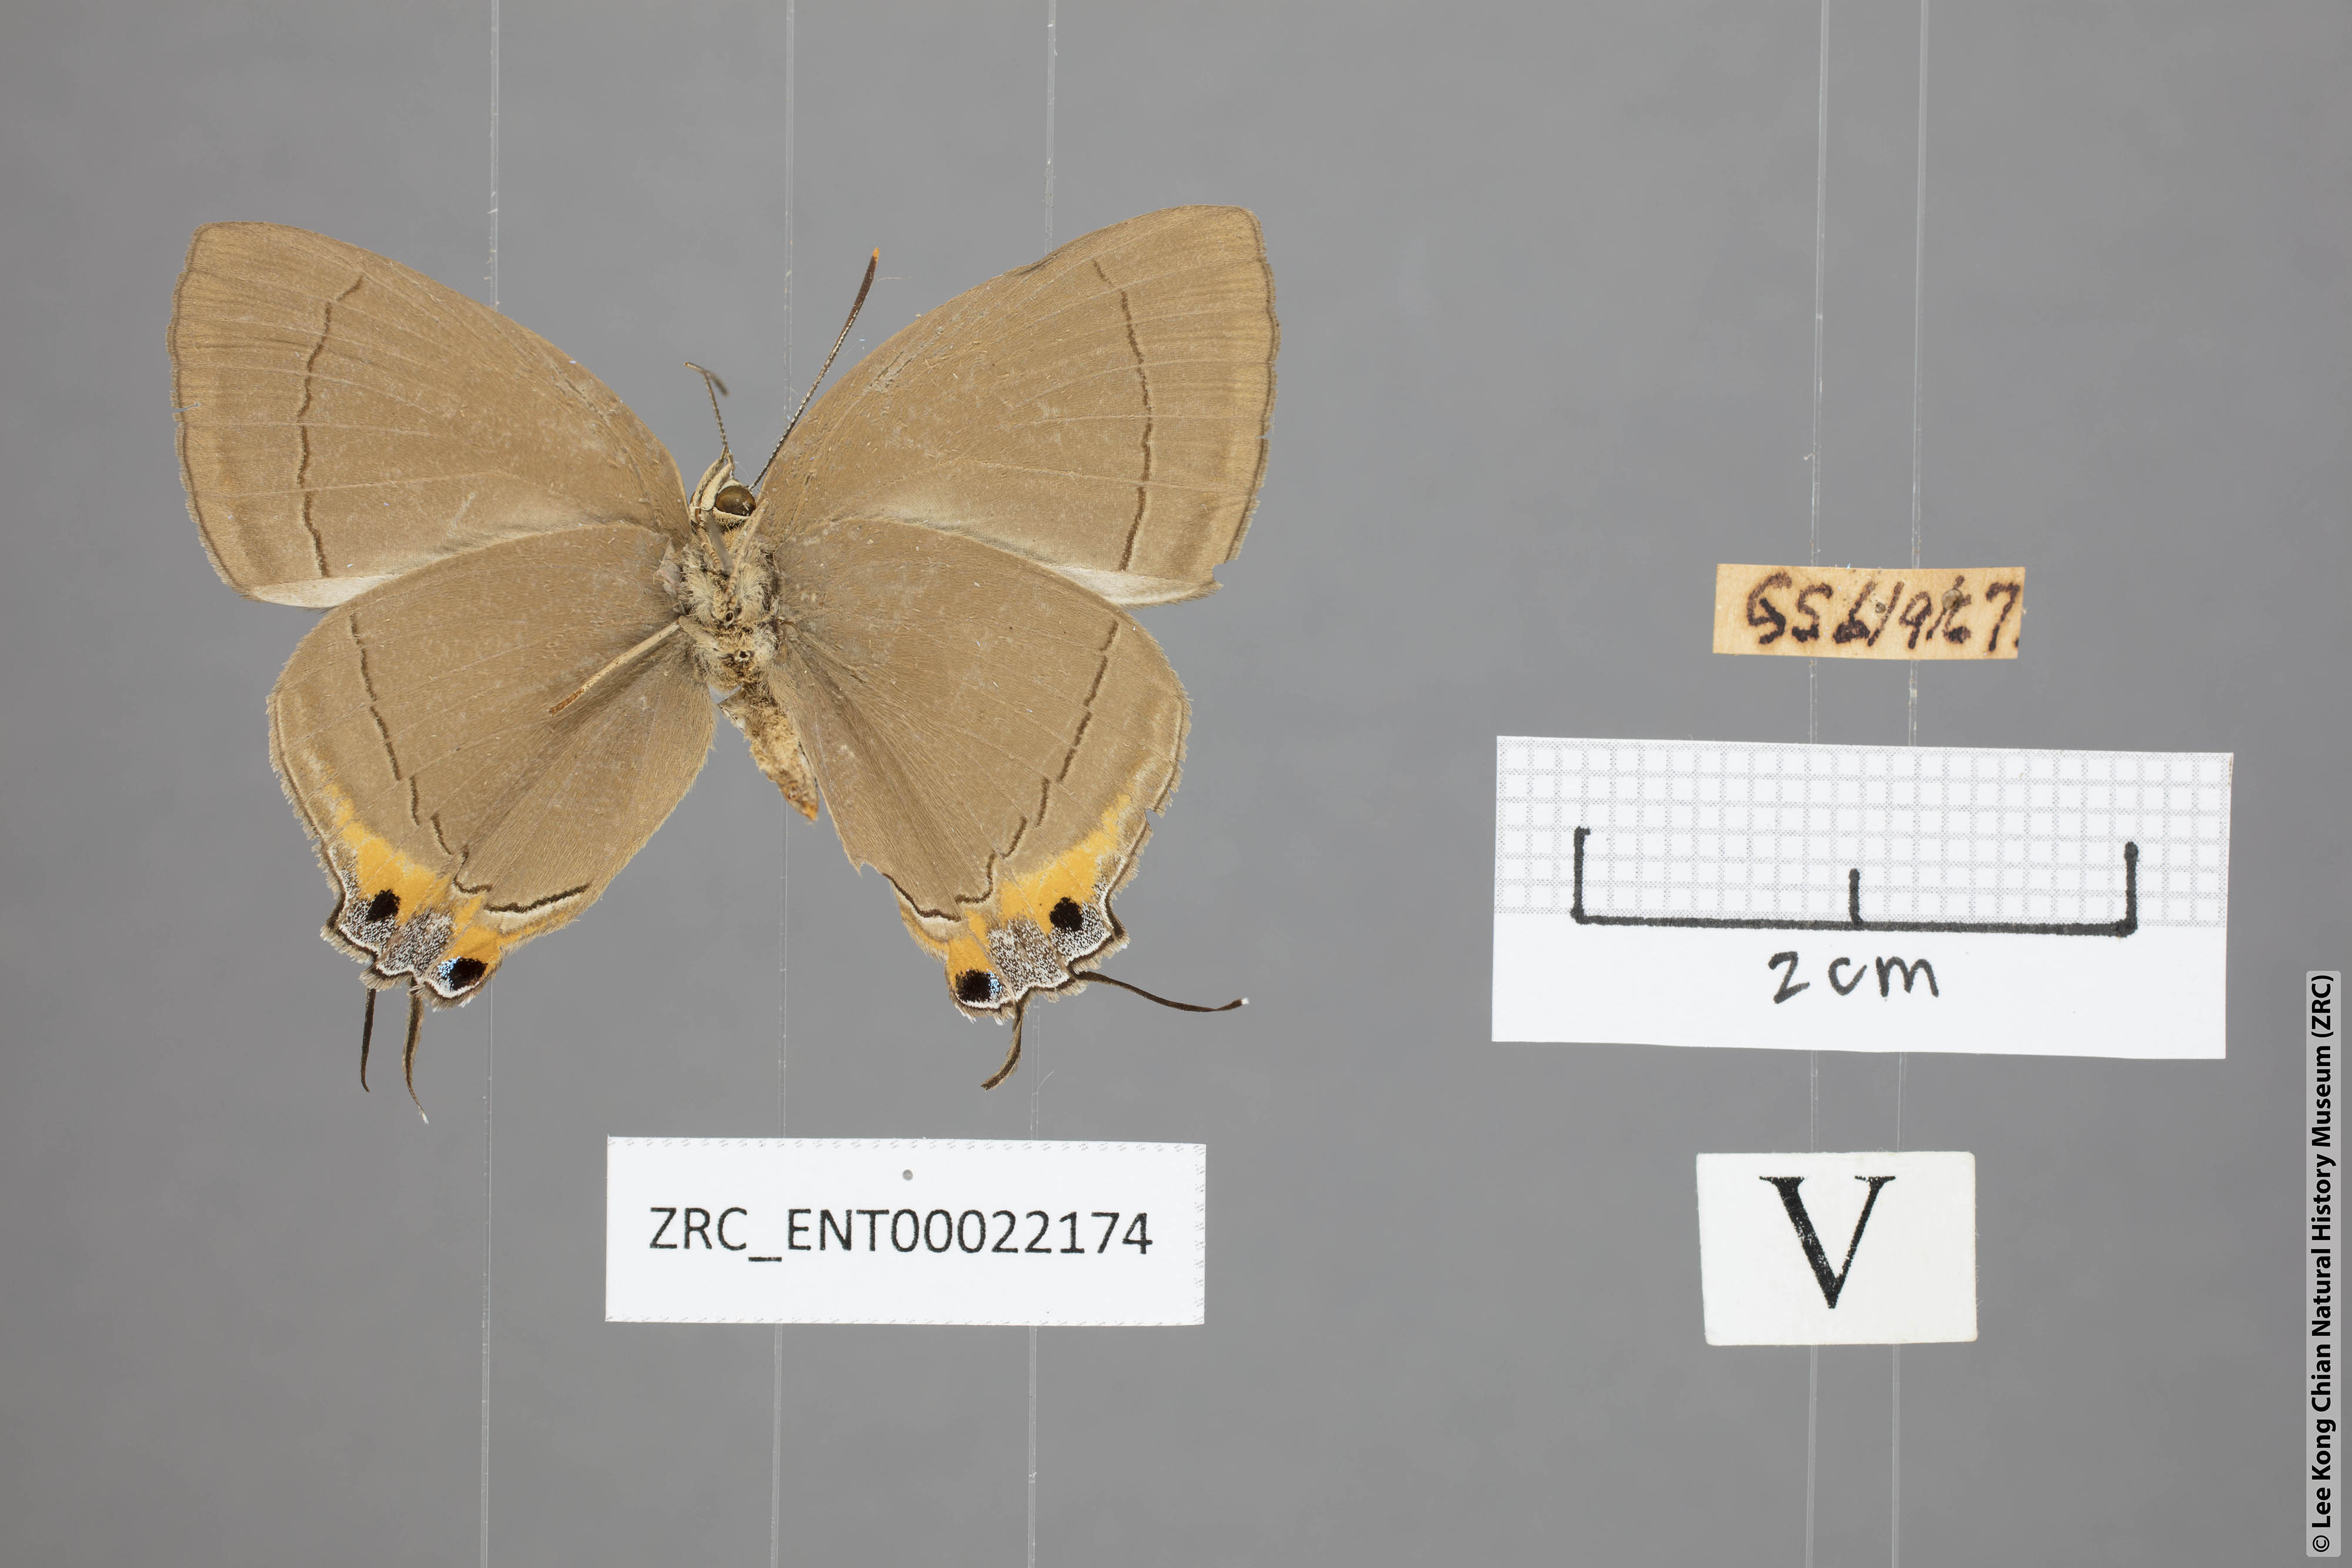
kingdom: Animalia
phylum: Arthropoda
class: Insecta
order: Lepidoptera
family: Lycaenidae
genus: Tajuria
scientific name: Tajuria deudaix
